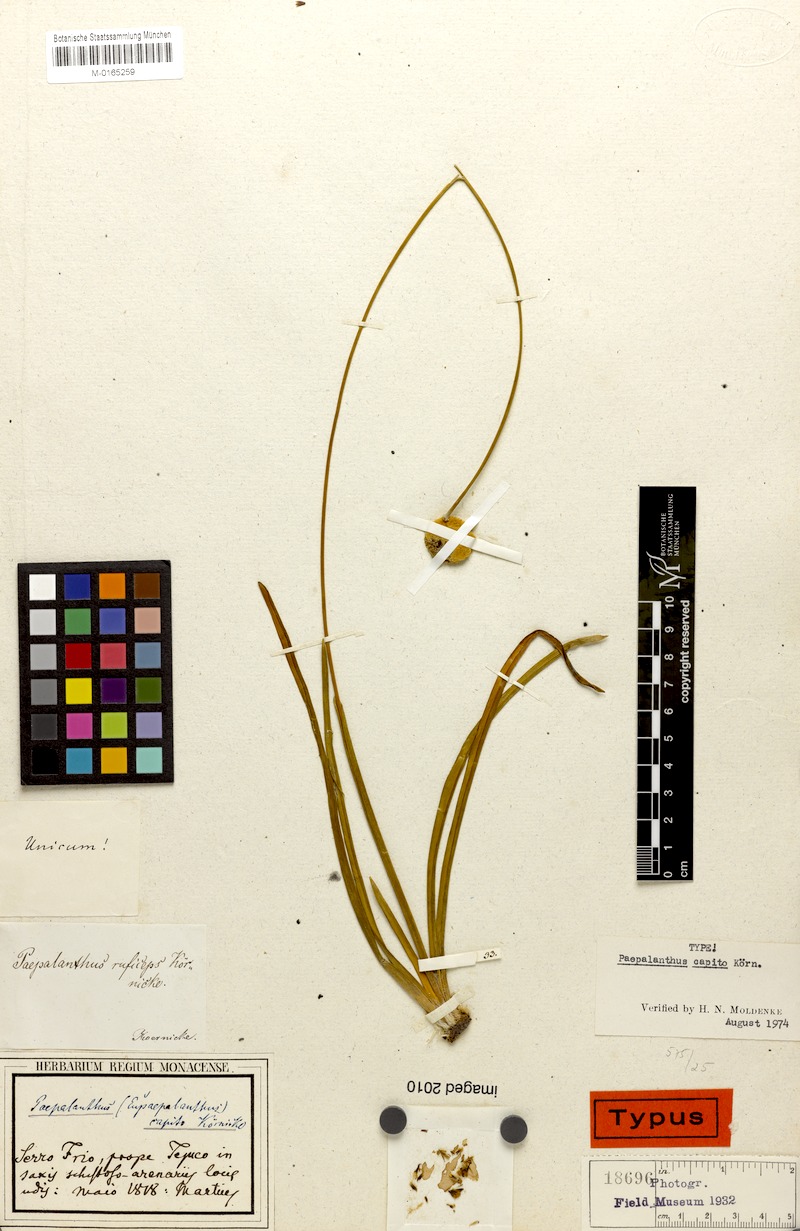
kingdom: Plantae
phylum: Tracheophyta
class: Liliopsida
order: Poales
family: Eriocaulaceae
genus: Paepalanthus
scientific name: Paepalanthus capito
